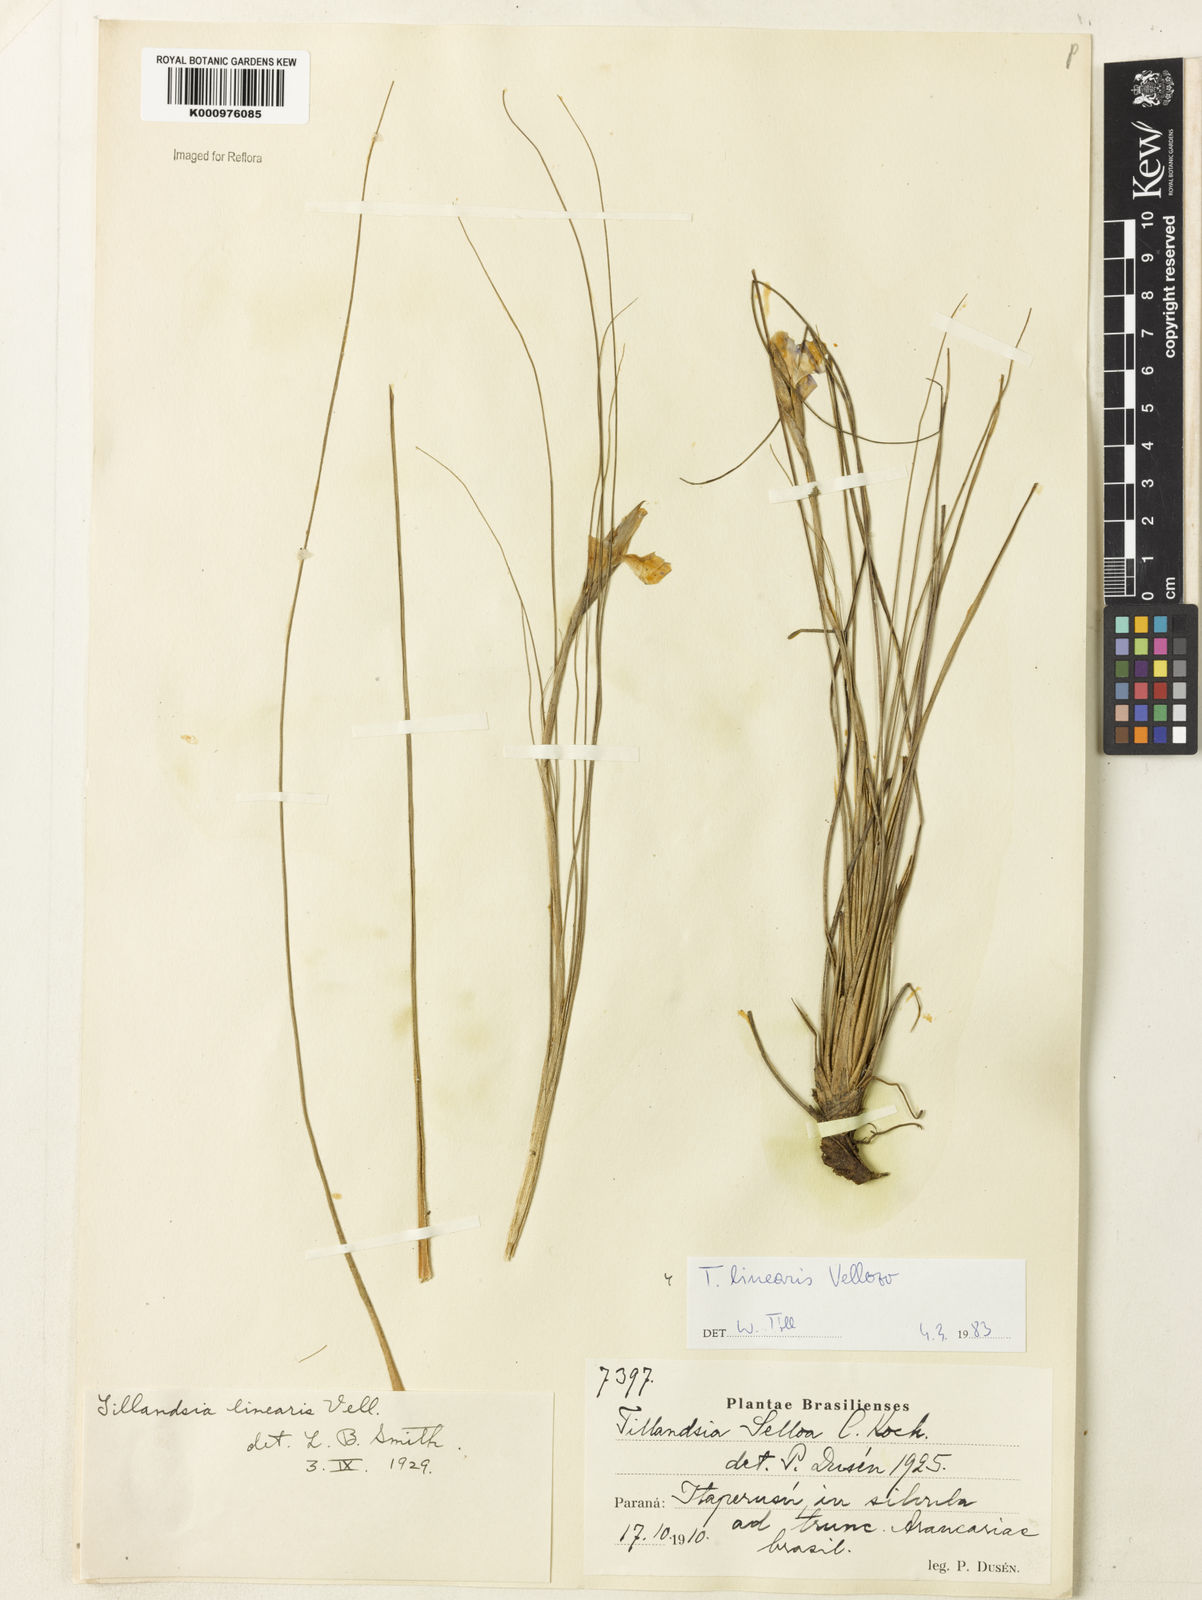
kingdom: Plantae
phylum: Tracheophyta
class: Liliopsida
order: Poales
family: Bromeliaceae
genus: Tillandsia
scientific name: Tillandsia linearis
